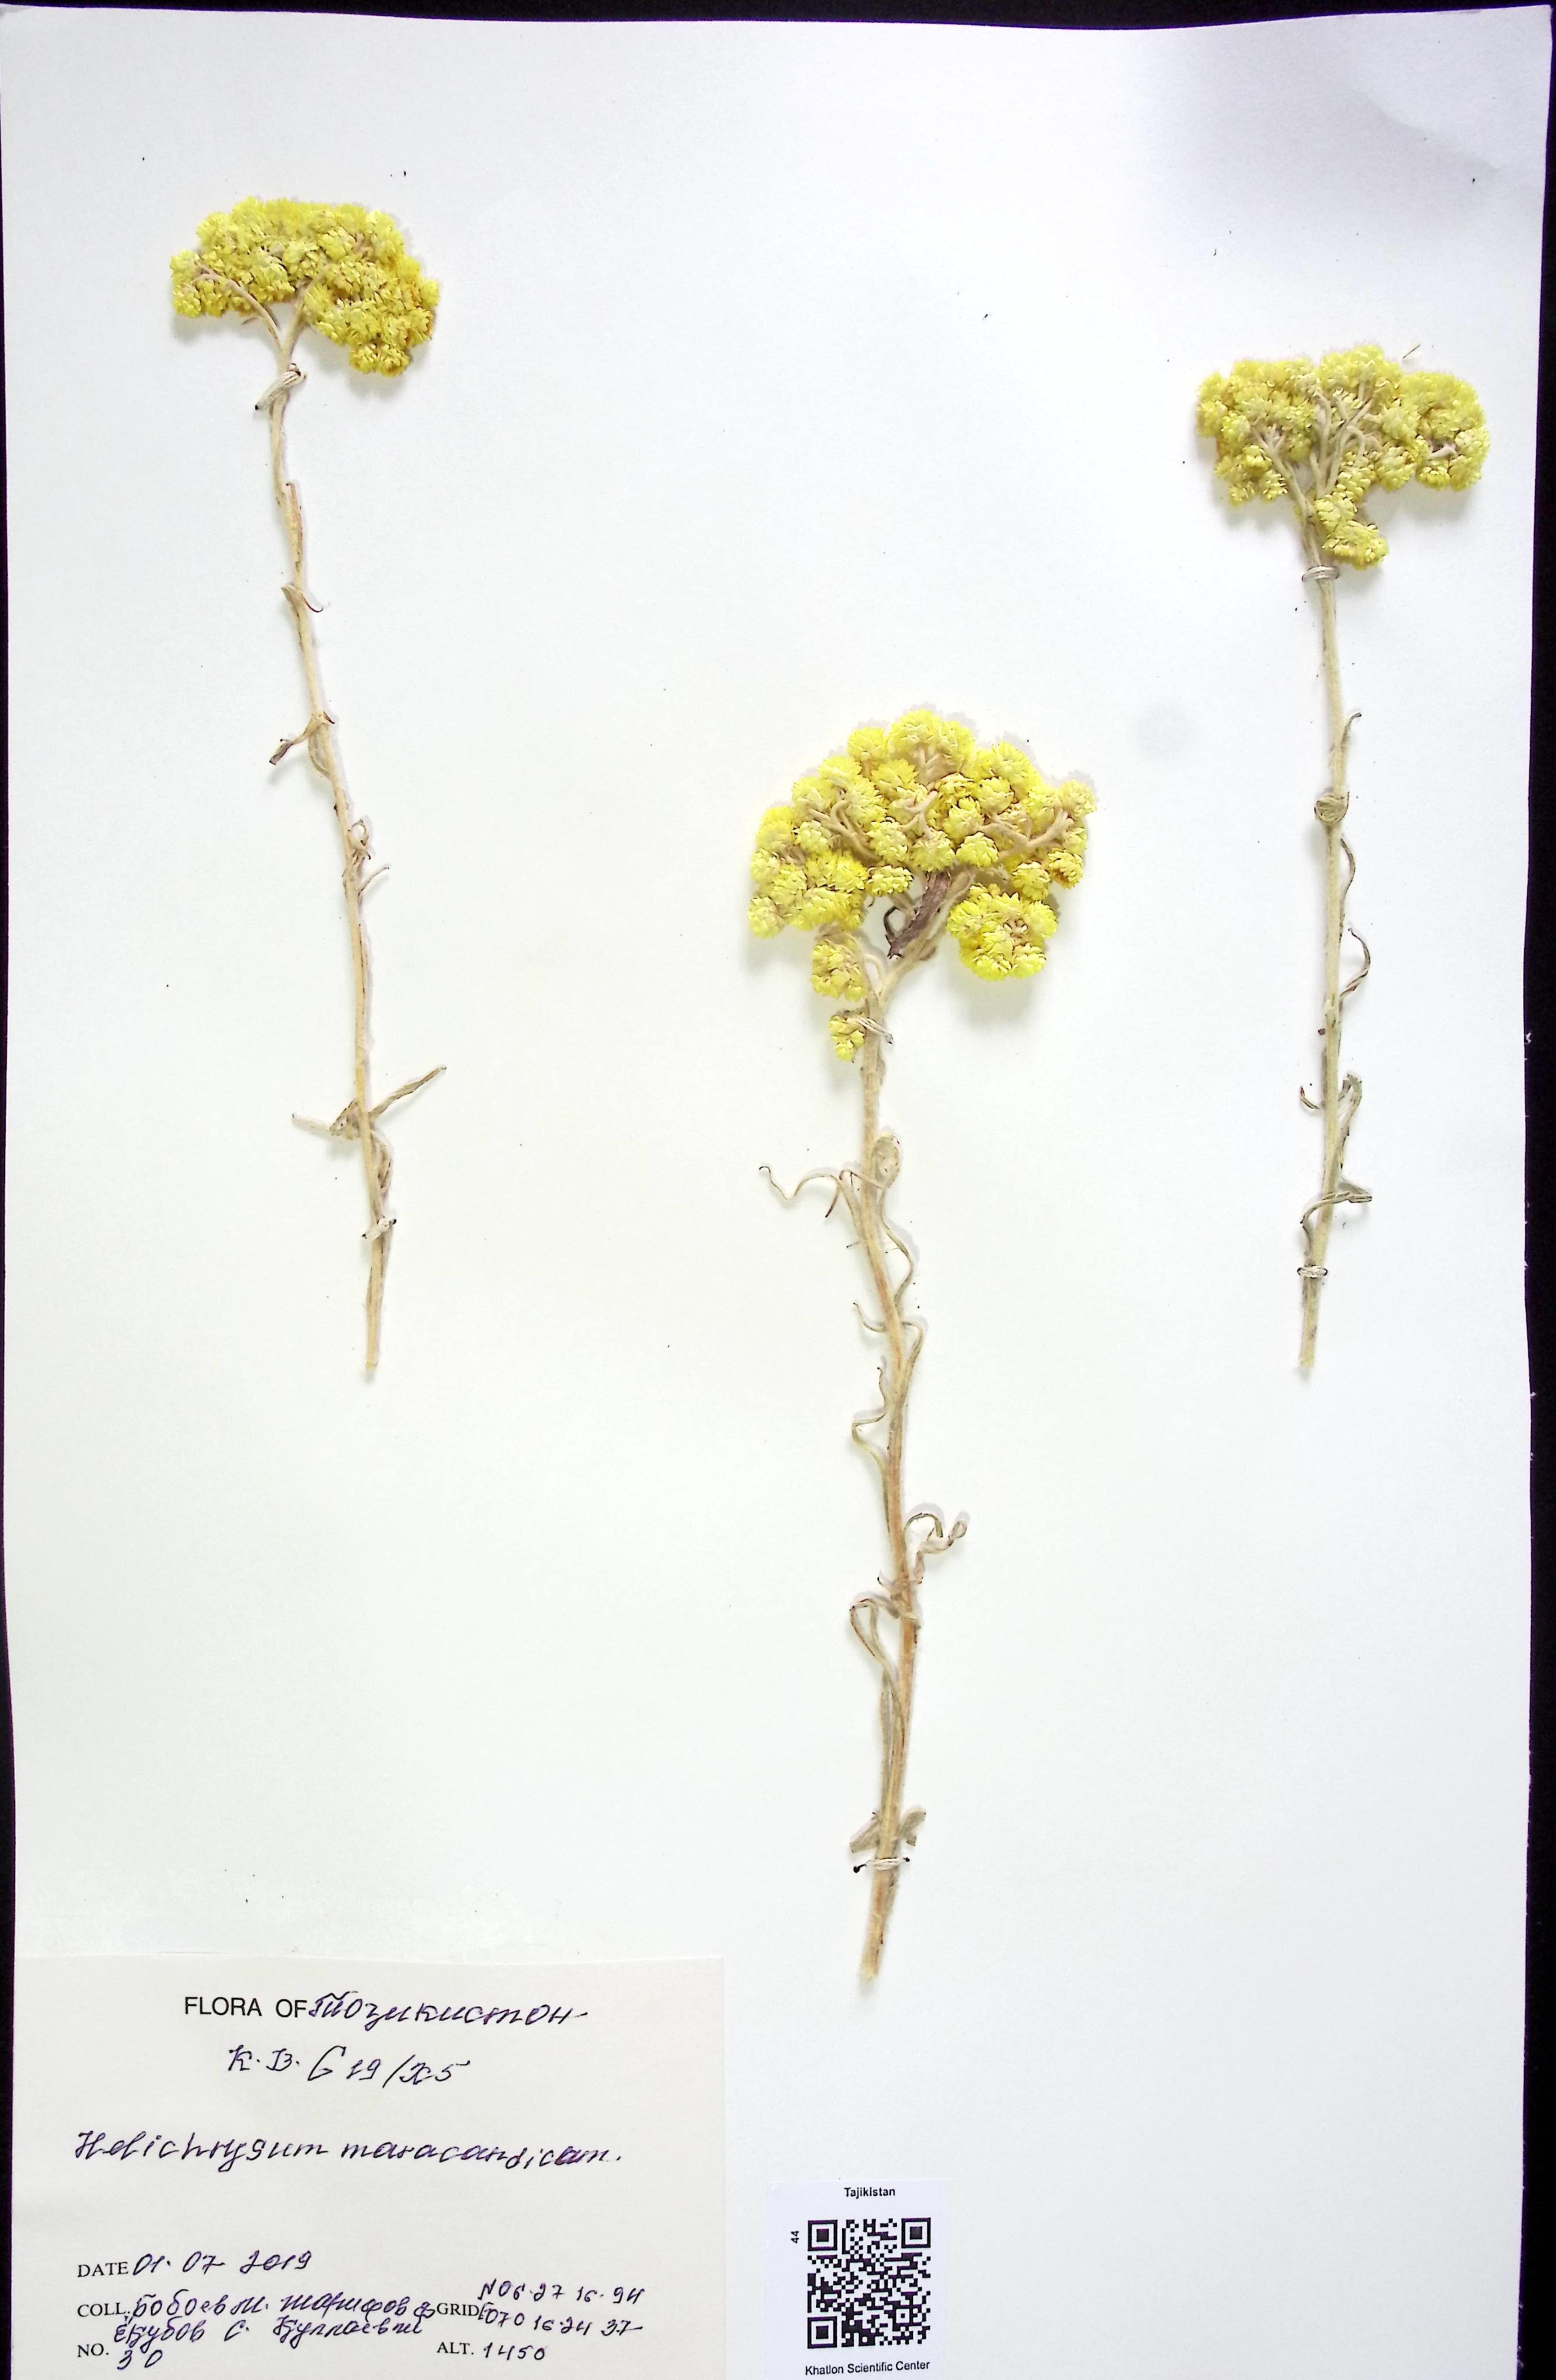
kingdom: Plantae
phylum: Tracheophyta
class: Magnoliopsida
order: Asterales
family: Asteraceae
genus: Helichrysum
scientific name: Helichrysum maracandicum
